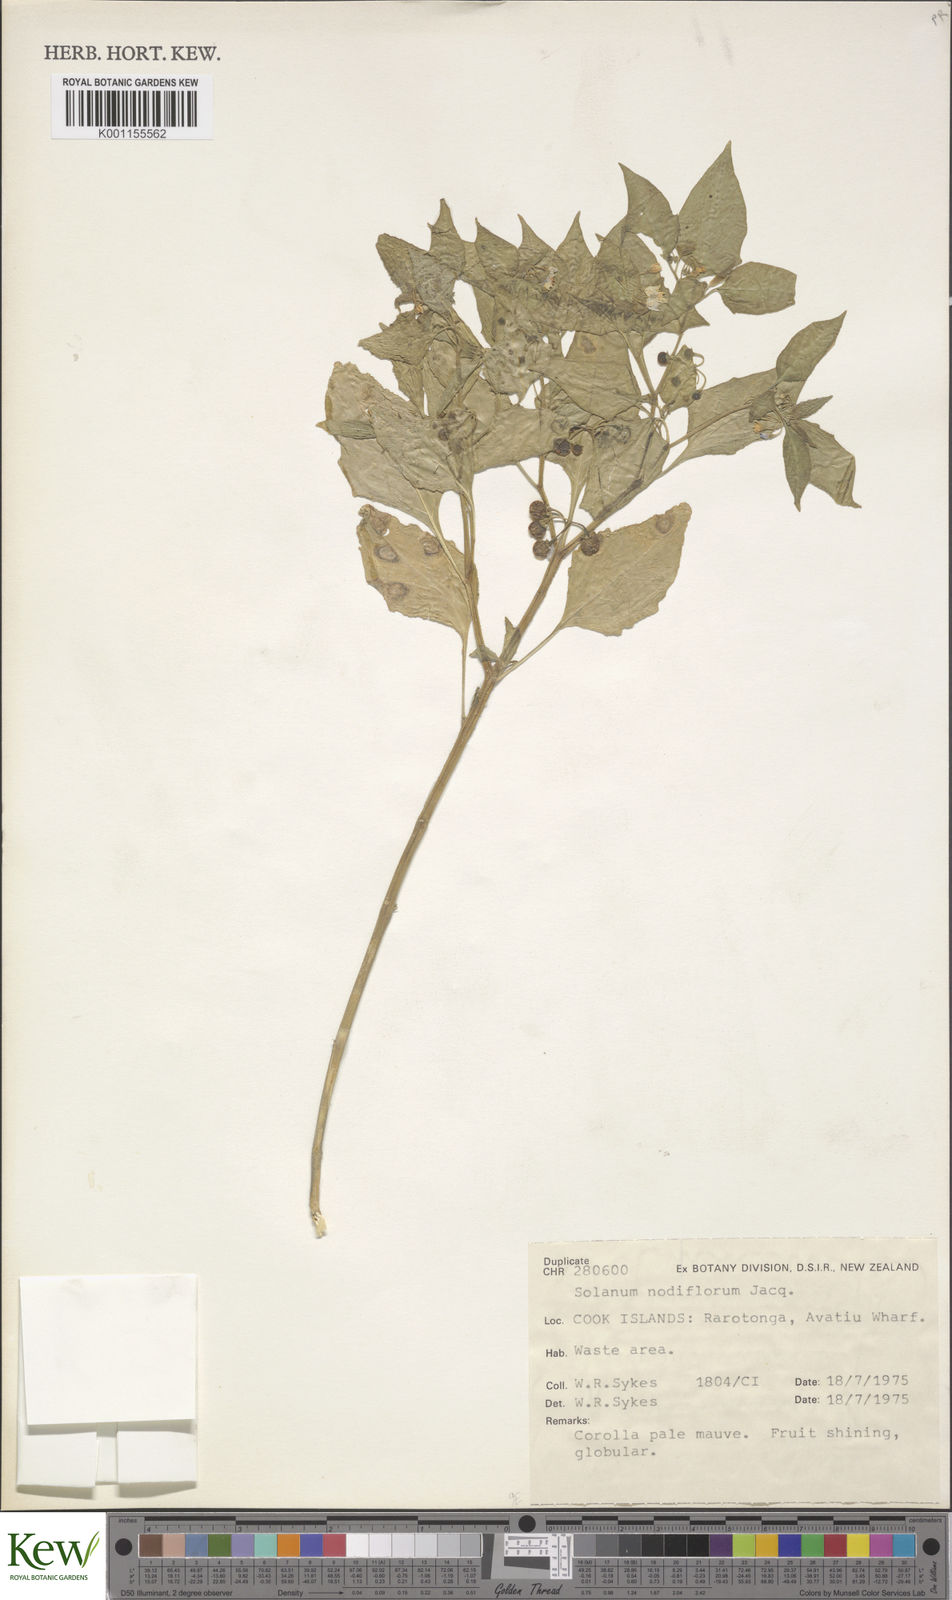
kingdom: Plantae
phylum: Tracheophyta
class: Magnoliopsida
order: Solanales
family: Solanaceae
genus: Solanum
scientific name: Solanum americanum
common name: American black nightshade
